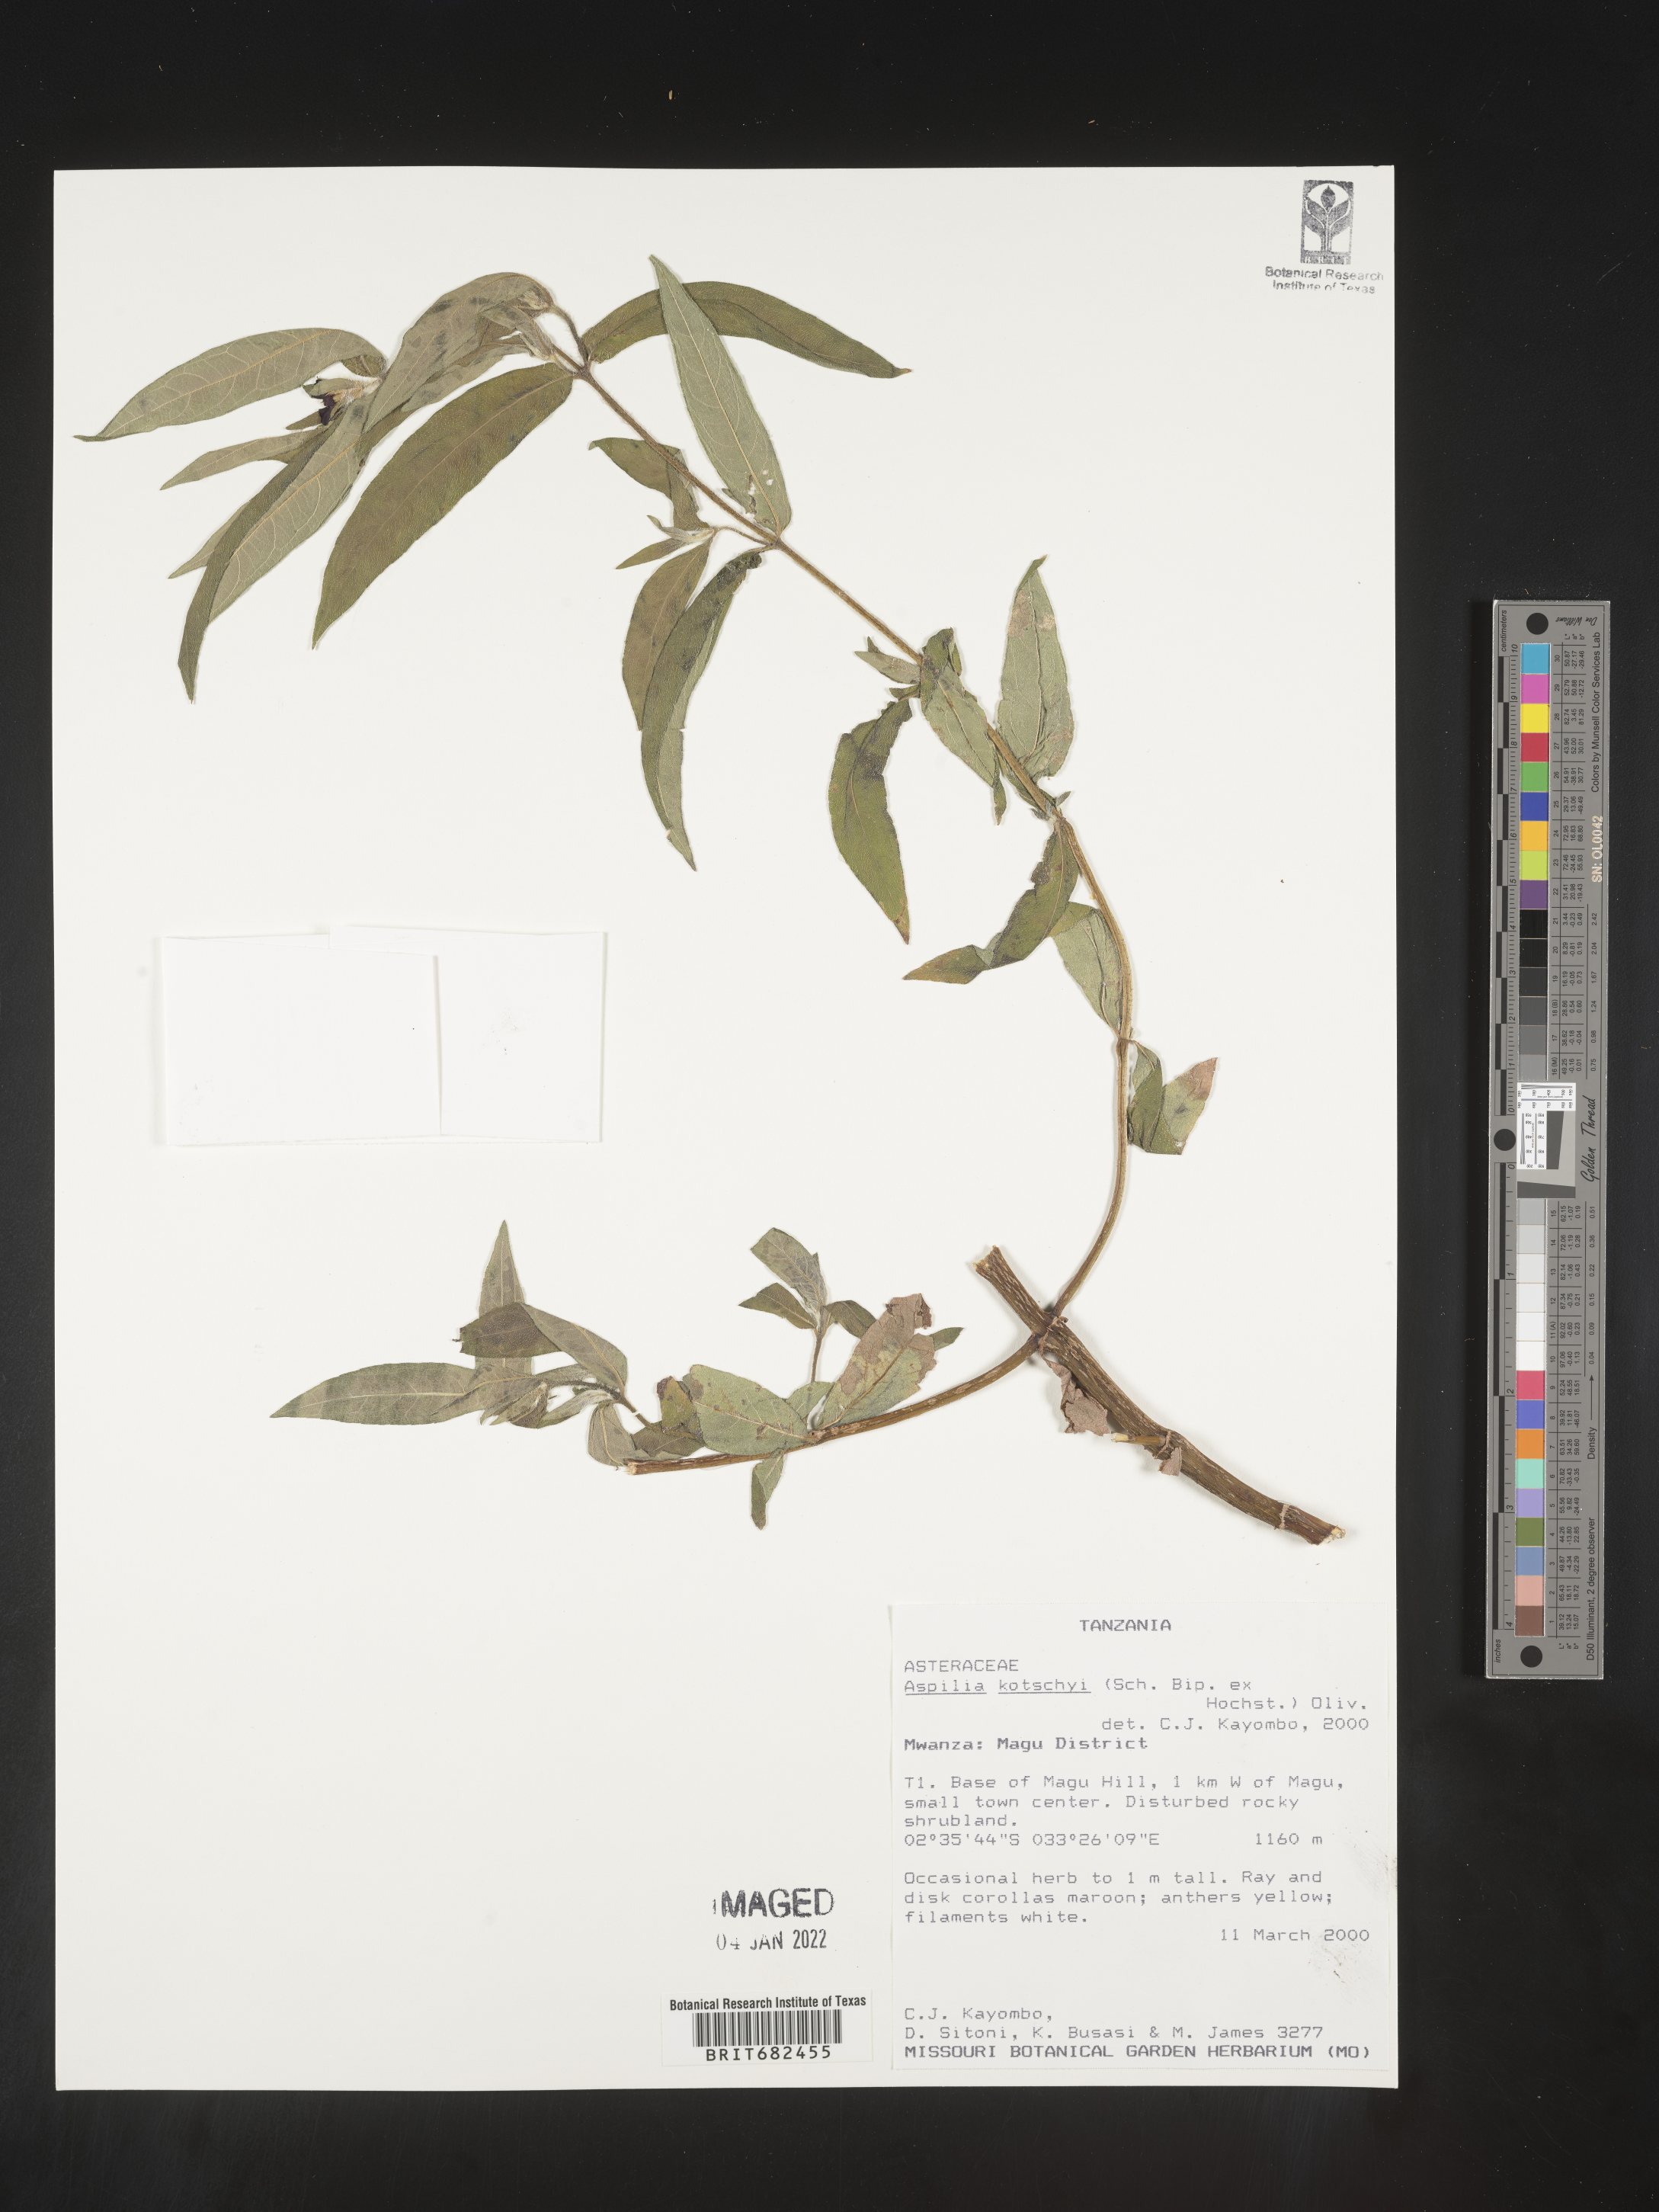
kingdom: Plantae
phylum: Tracheophyta
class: Magnoliopsida
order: Asterales
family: Asteraceae
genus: Aspilia
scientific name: Aspilia
